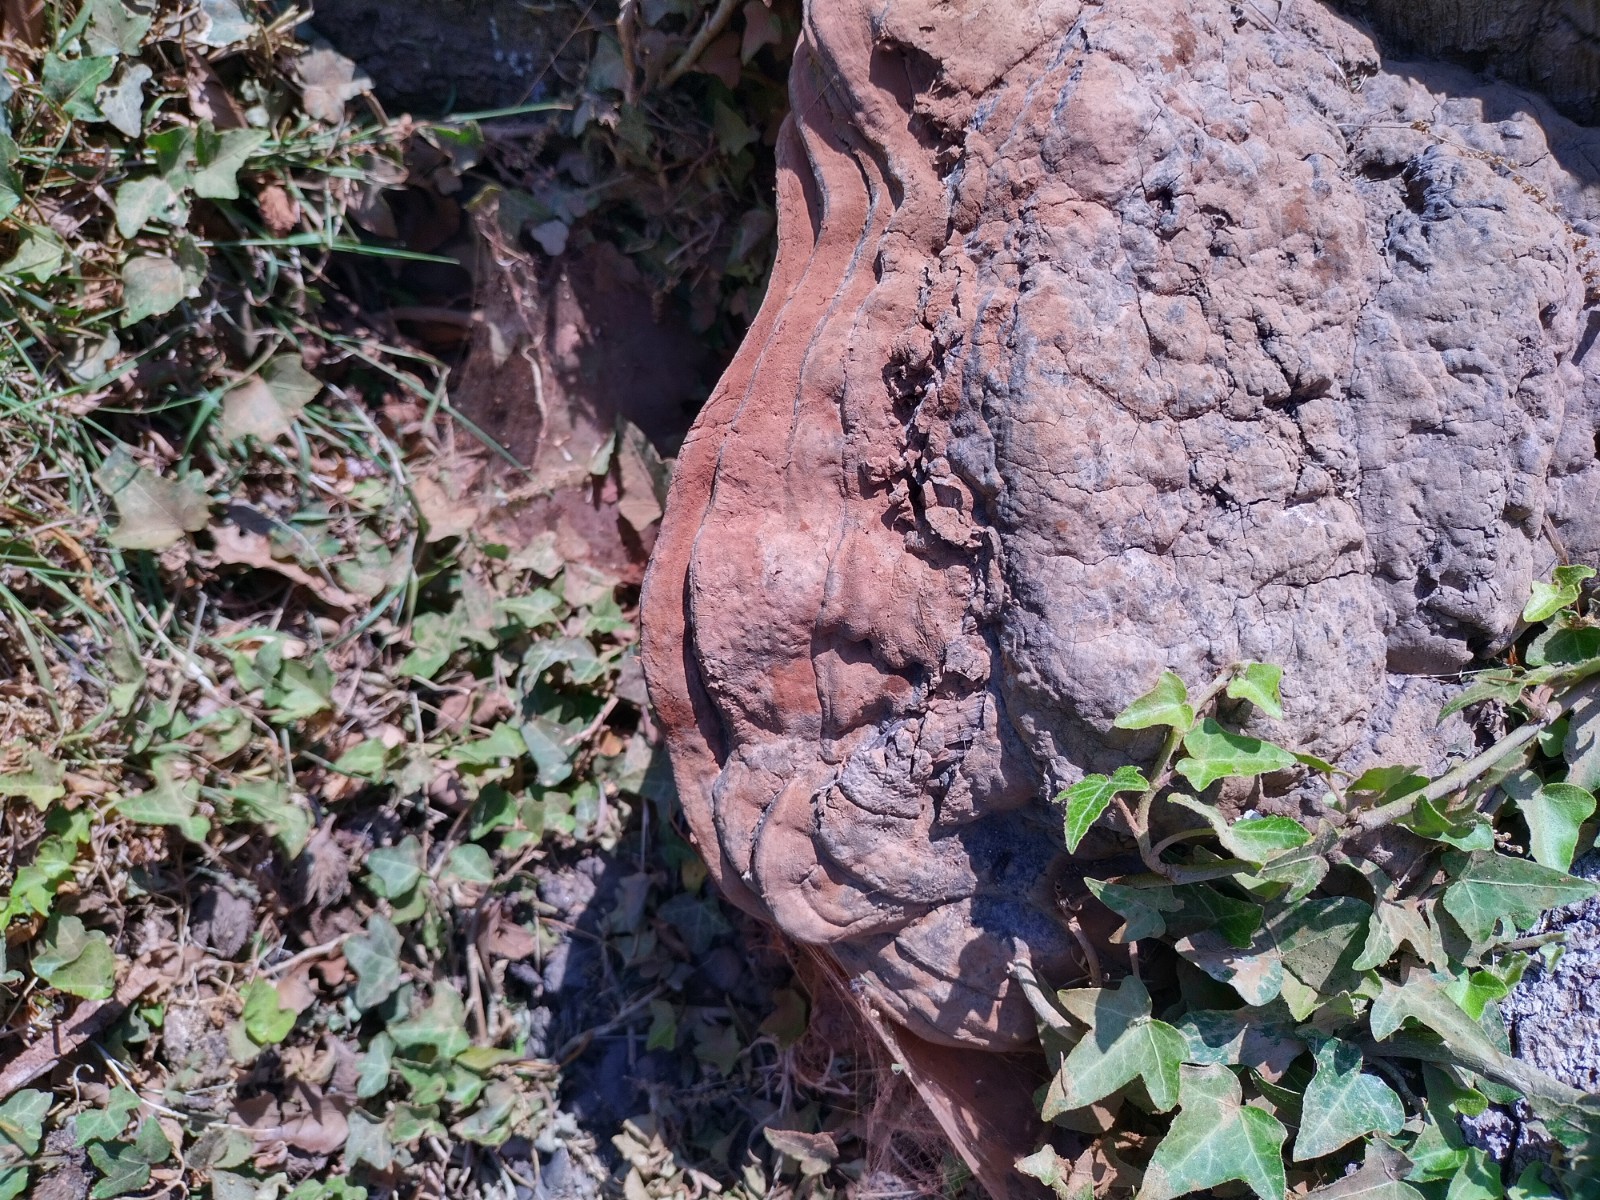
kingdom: Fungi
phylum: Basidiomycota
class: Agaricomycetes
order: Polyporales
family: Polyporaceae
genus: Ganoderma
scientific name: Ganoderma pfeifferi
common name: kobberrød lakporesvamp
